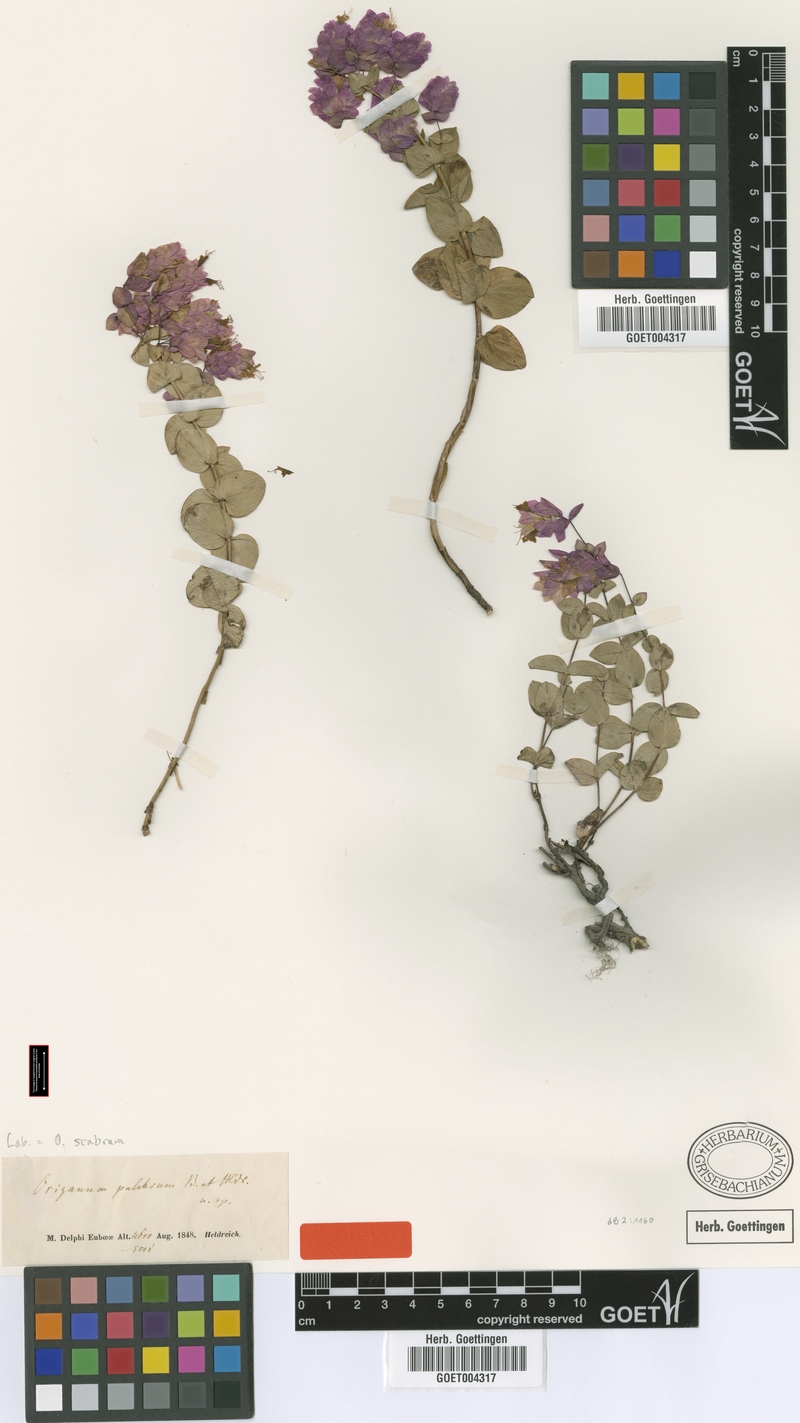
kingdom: Plantae
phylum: Tracheophyta
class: Magnoliopsida
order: Lamiales
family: Lamiaceae
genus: Origanum
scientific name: Origanum scabrum
